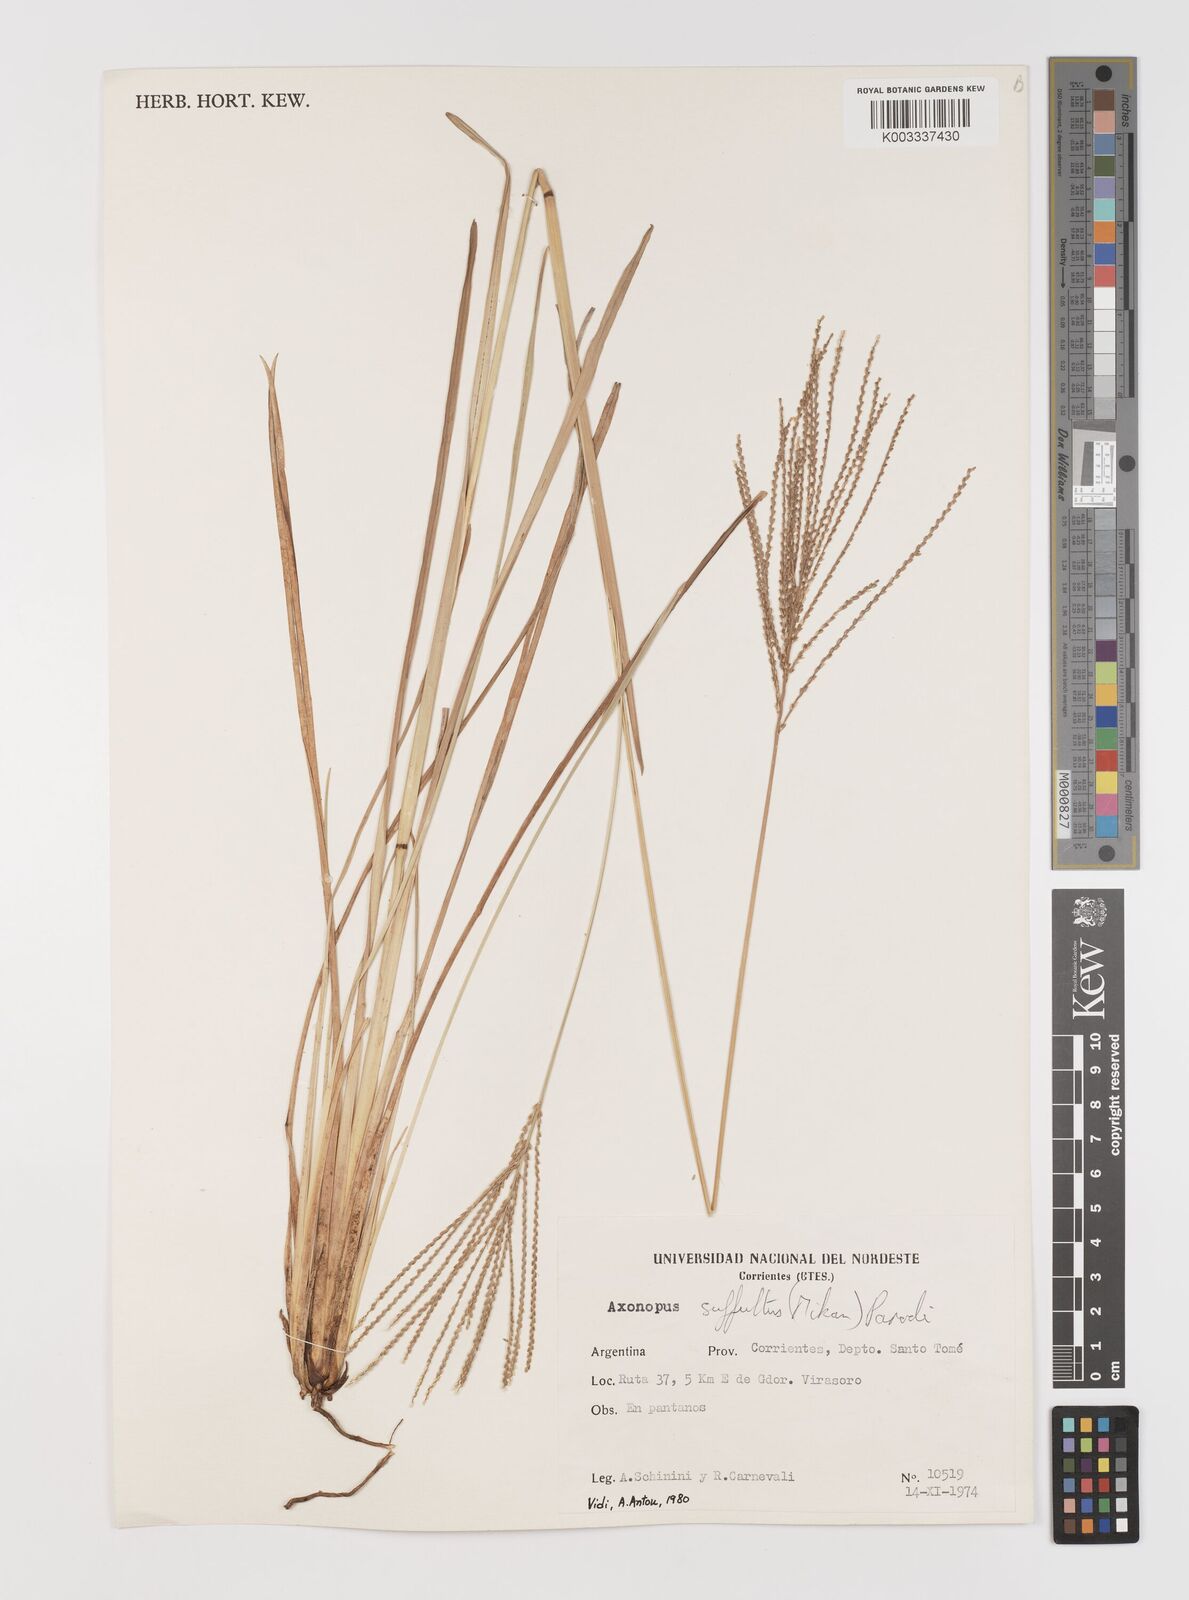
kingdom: Plantae
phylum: Tracheophyta
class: Liliopsida
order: Poales
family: Poaceae
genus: Axonopus
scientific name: Axonopus suffultus
